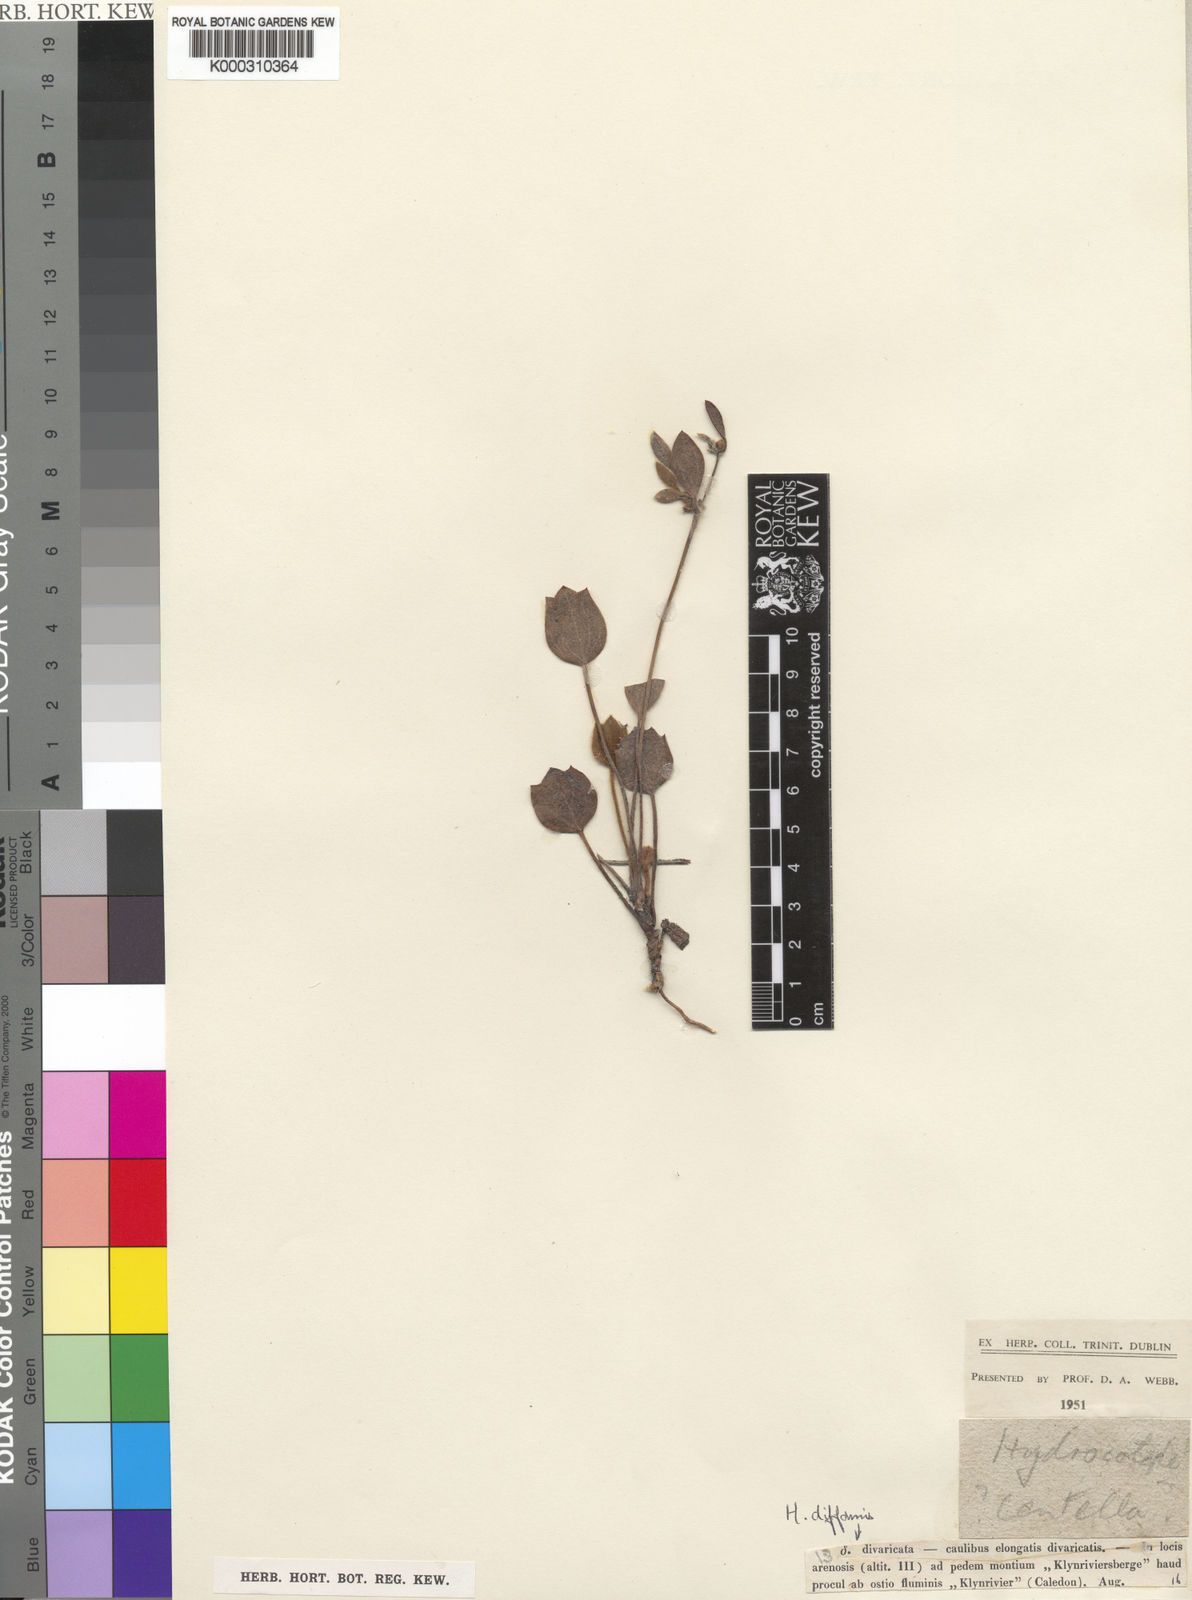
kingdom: Plantae
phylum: Tracheophyta
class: Magnoliopsida
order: Apiales
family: Apiaceae
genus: Centella
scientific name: Centella difformis
